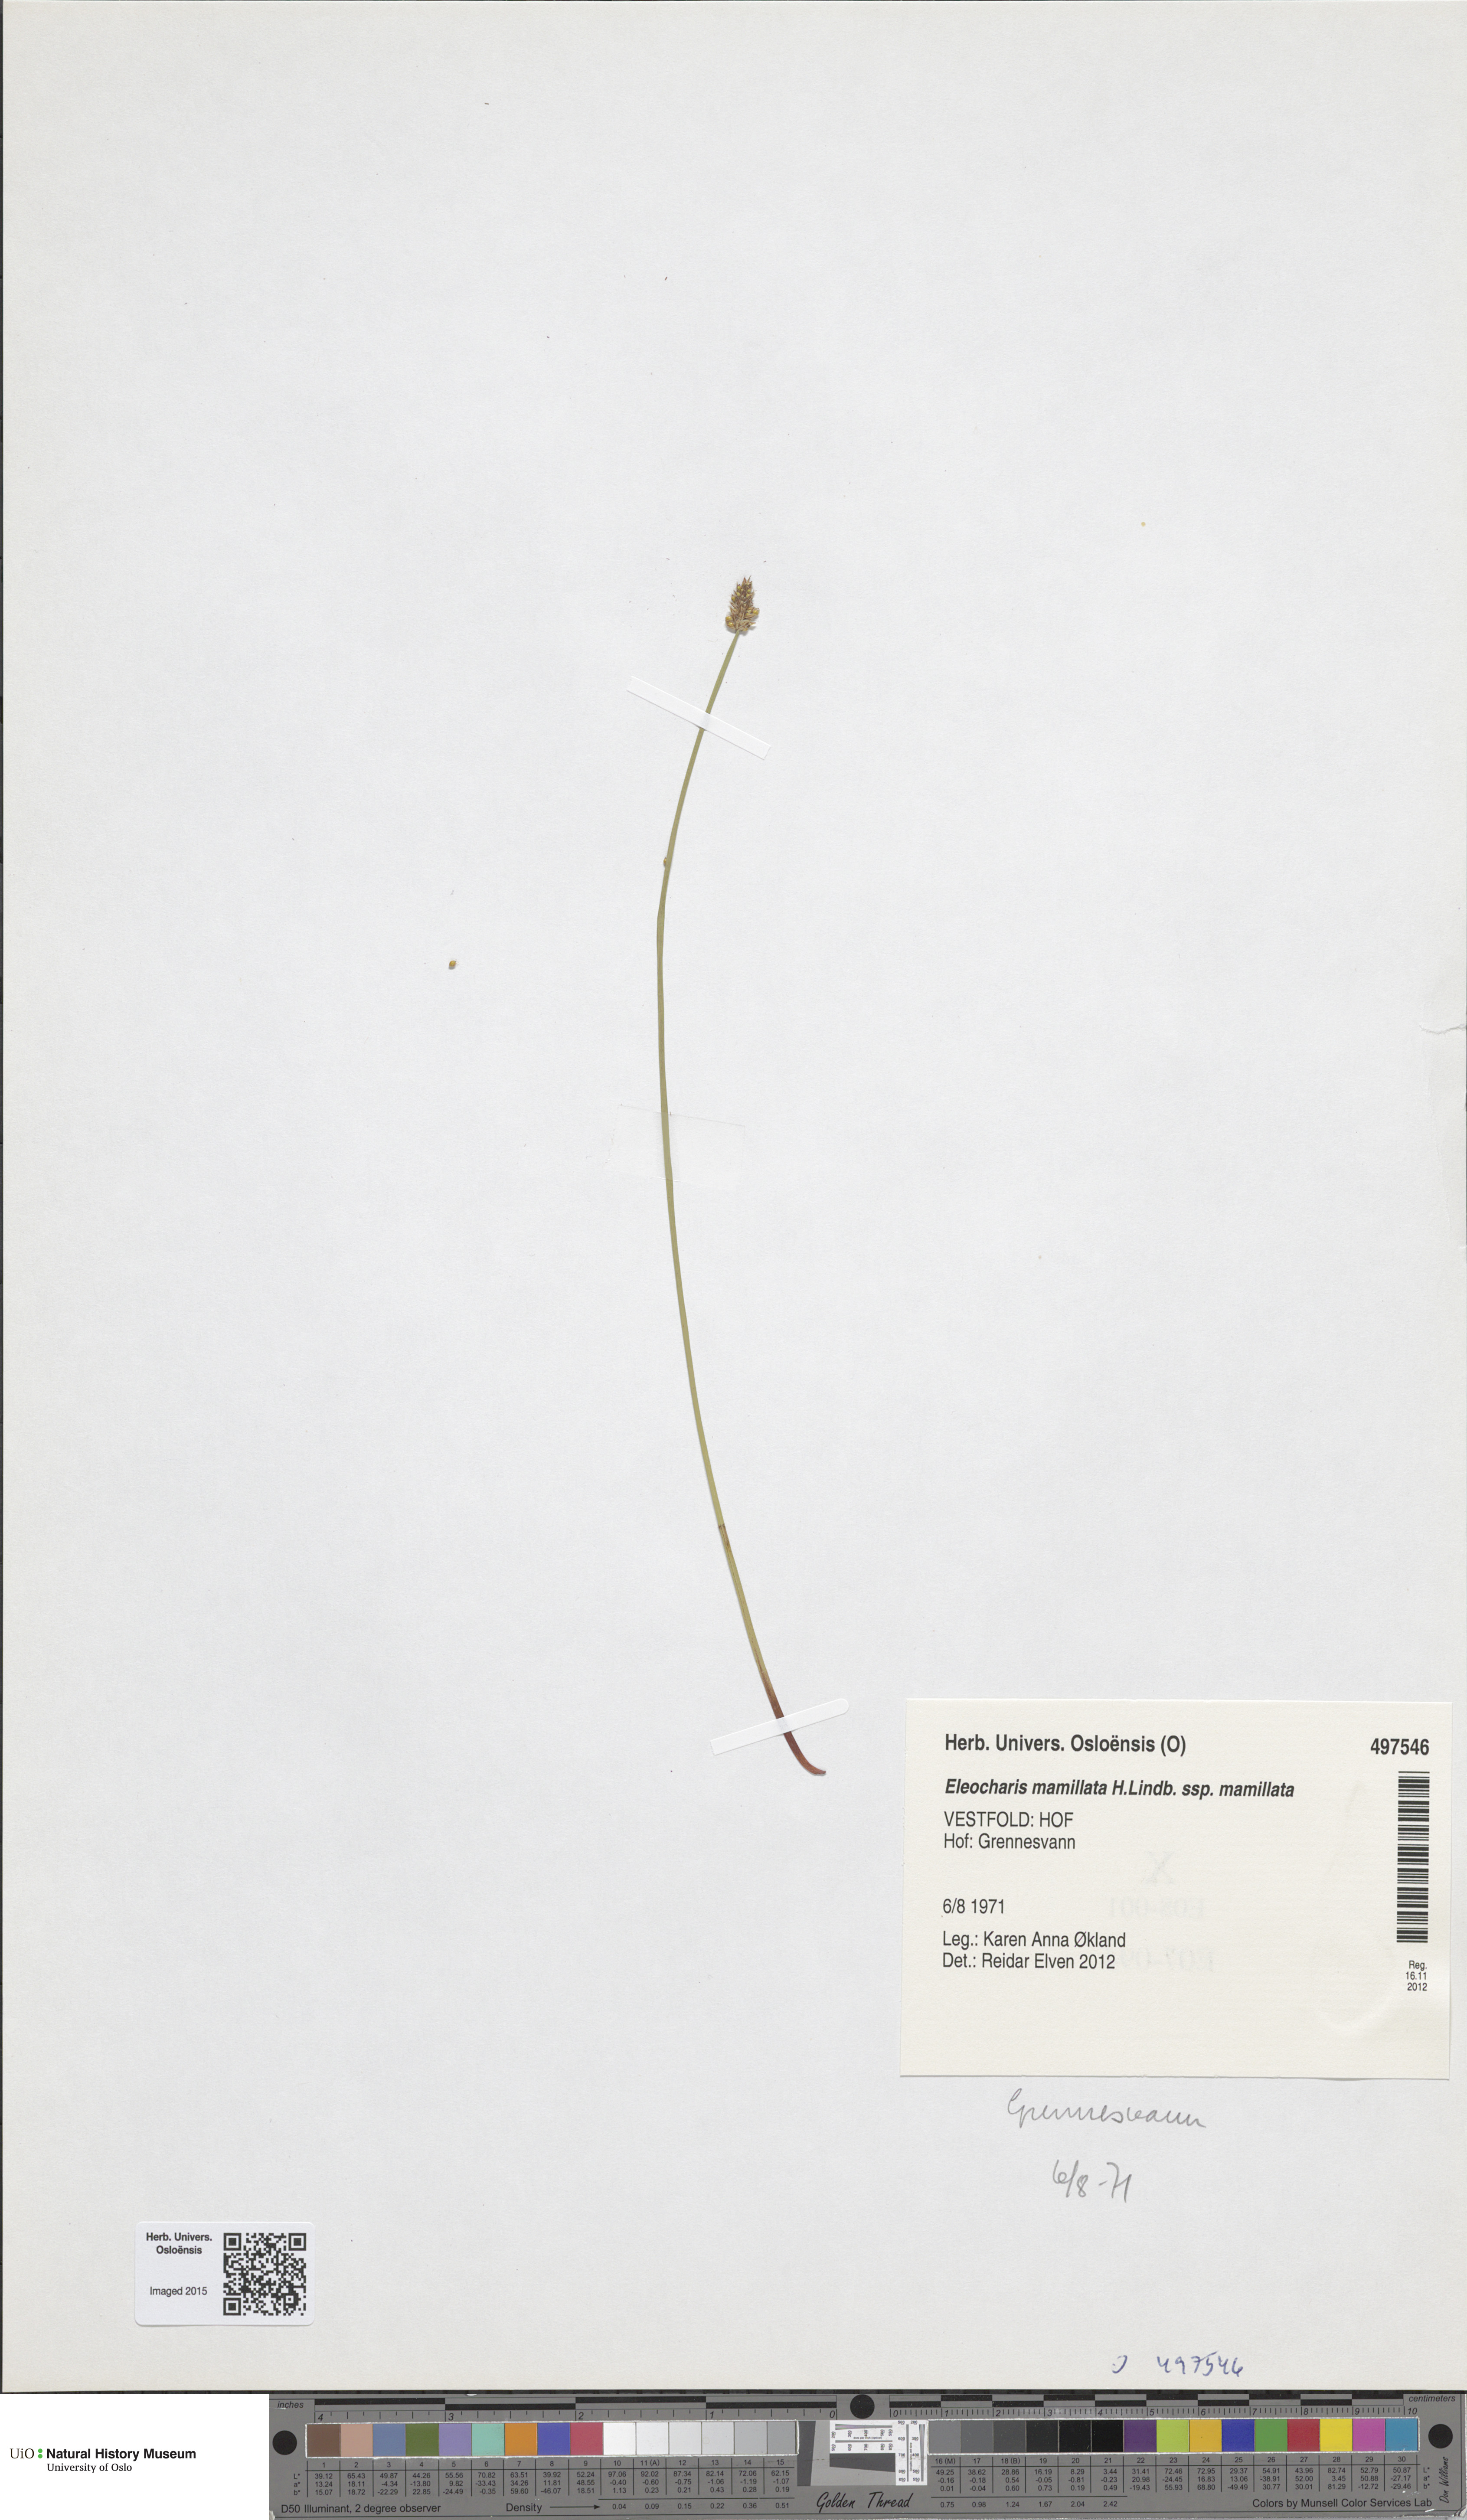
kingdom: Plantae
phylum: Tracheophyta
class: Liliopsida
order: Poales
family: Cyperaceae
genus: Eleocharis
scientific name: Eleocharis mamillata
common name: Northern spike-rush
